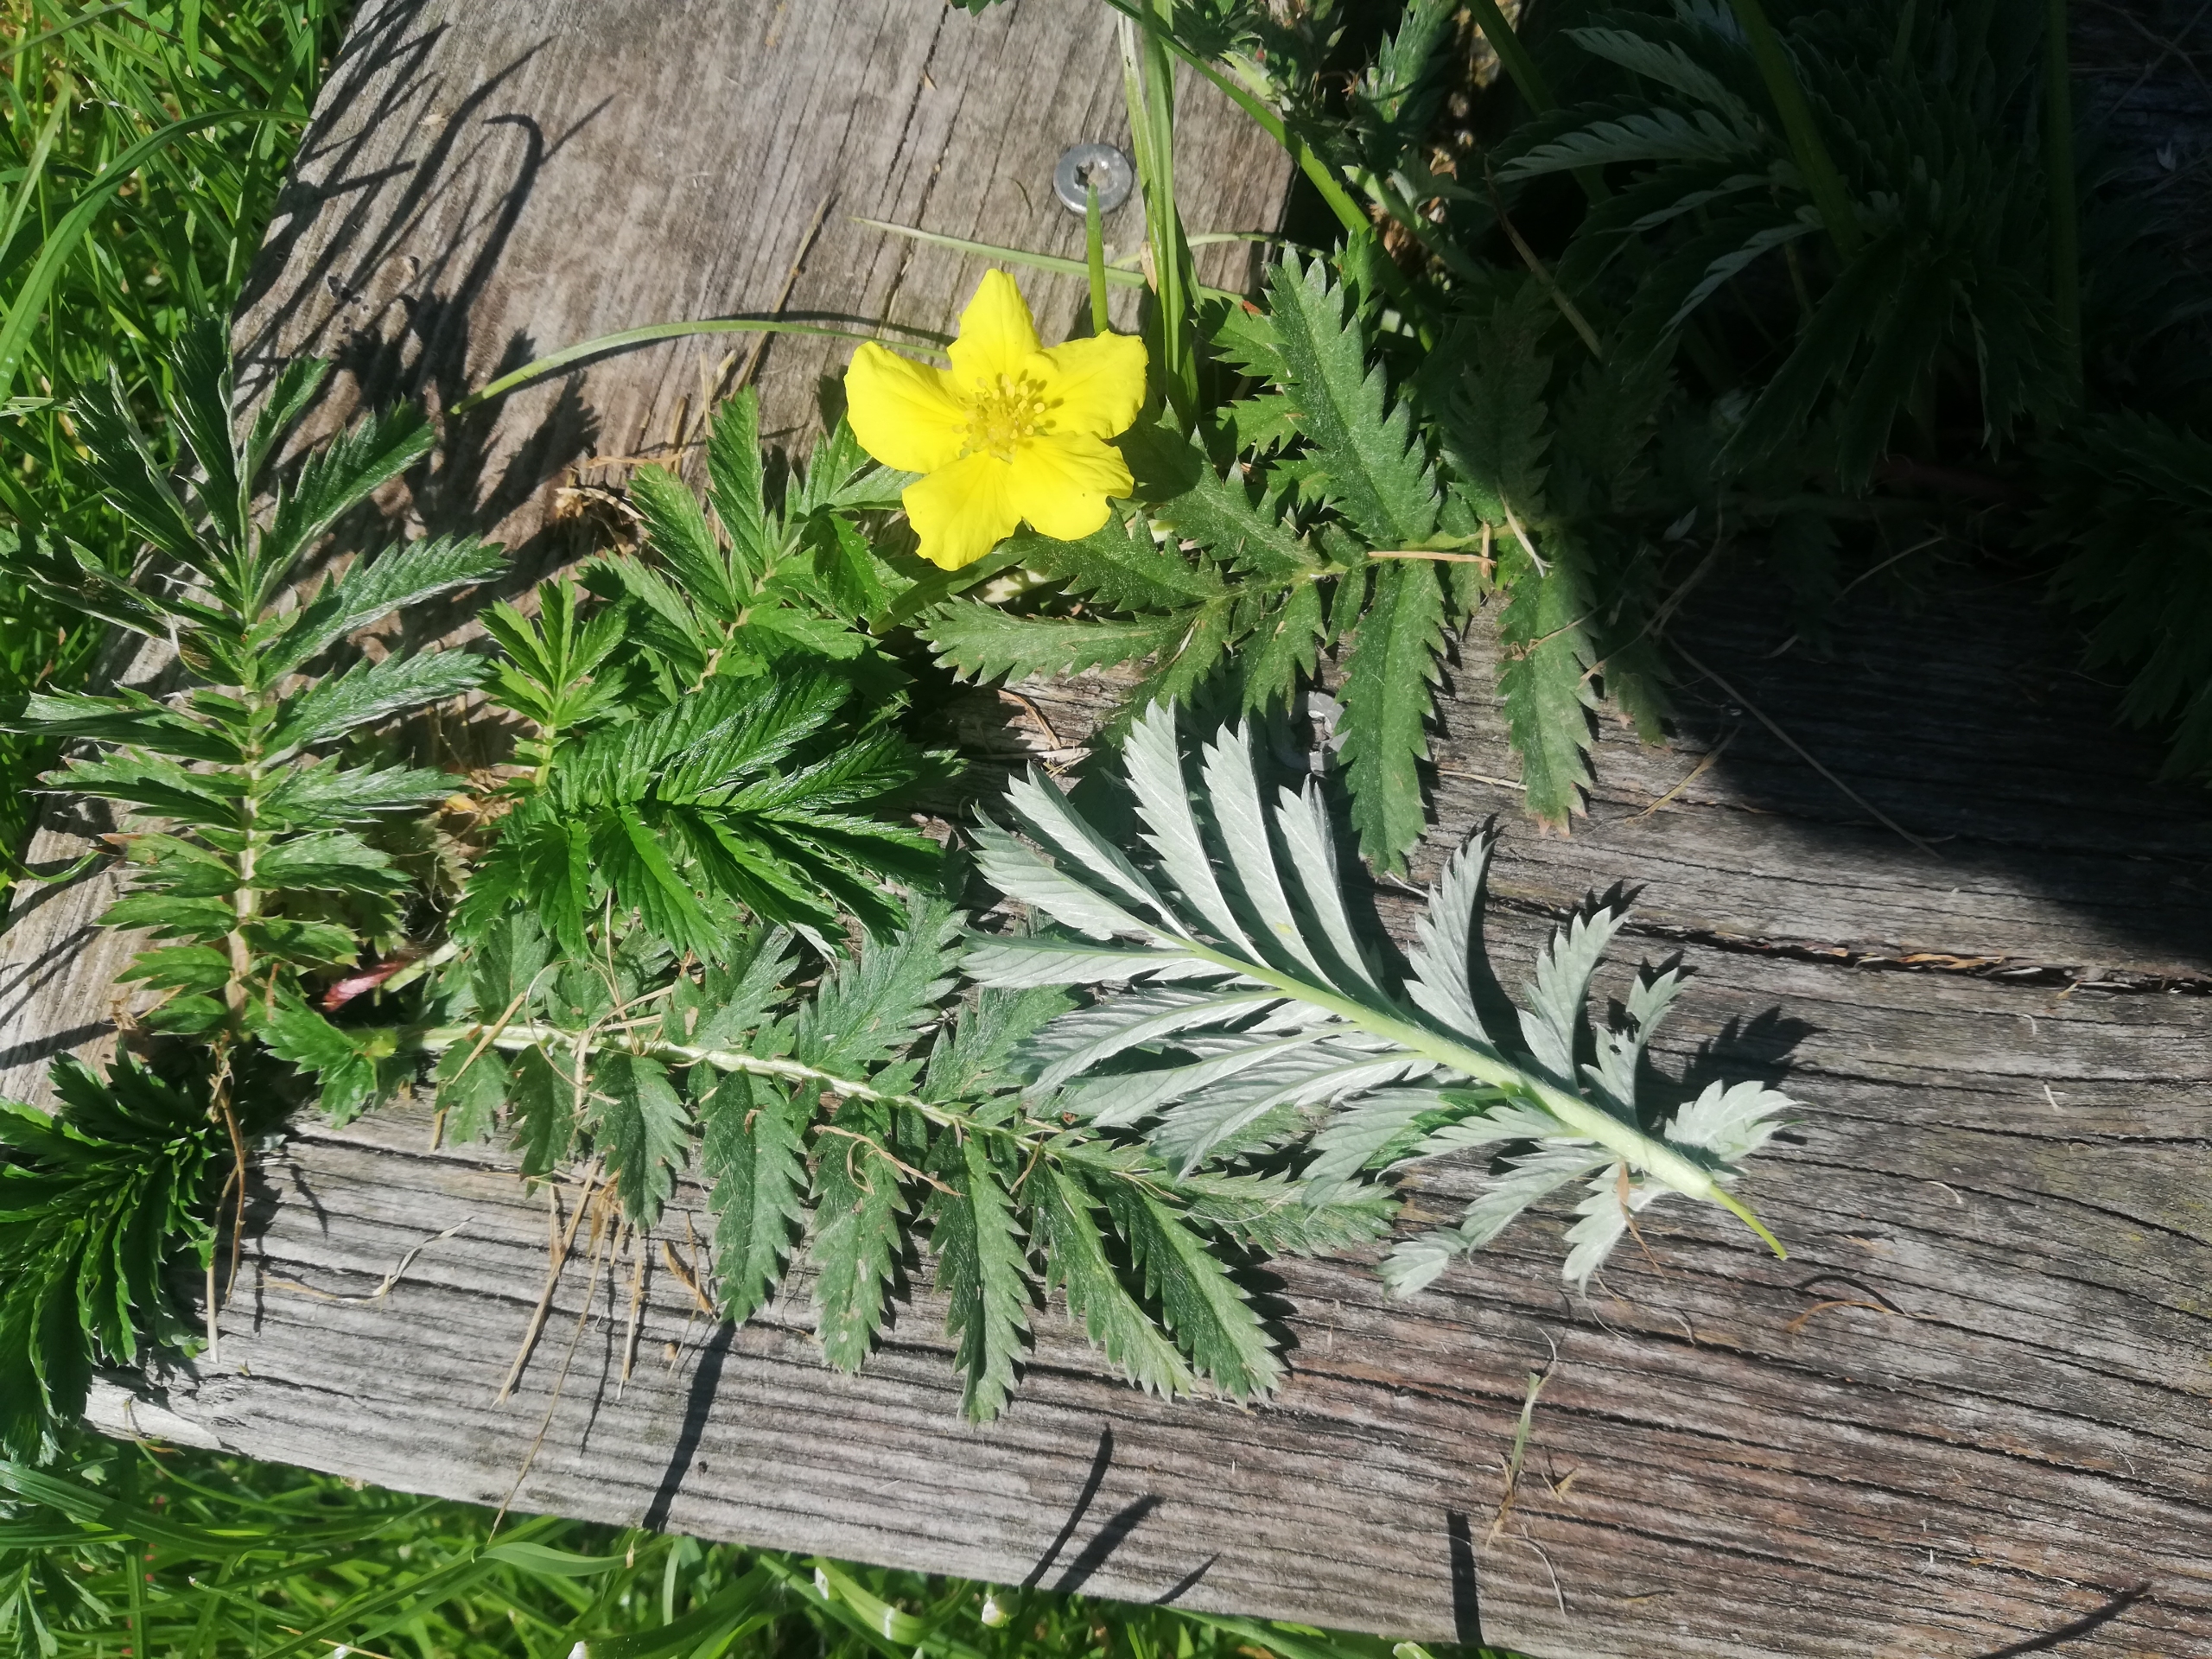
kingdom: Plantae
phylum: Tracheophyta
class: Magnoliopsida
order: Rosales
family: Rosaceae
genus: Argentina
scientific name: Argentina anserina
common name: Gåsepotentil
